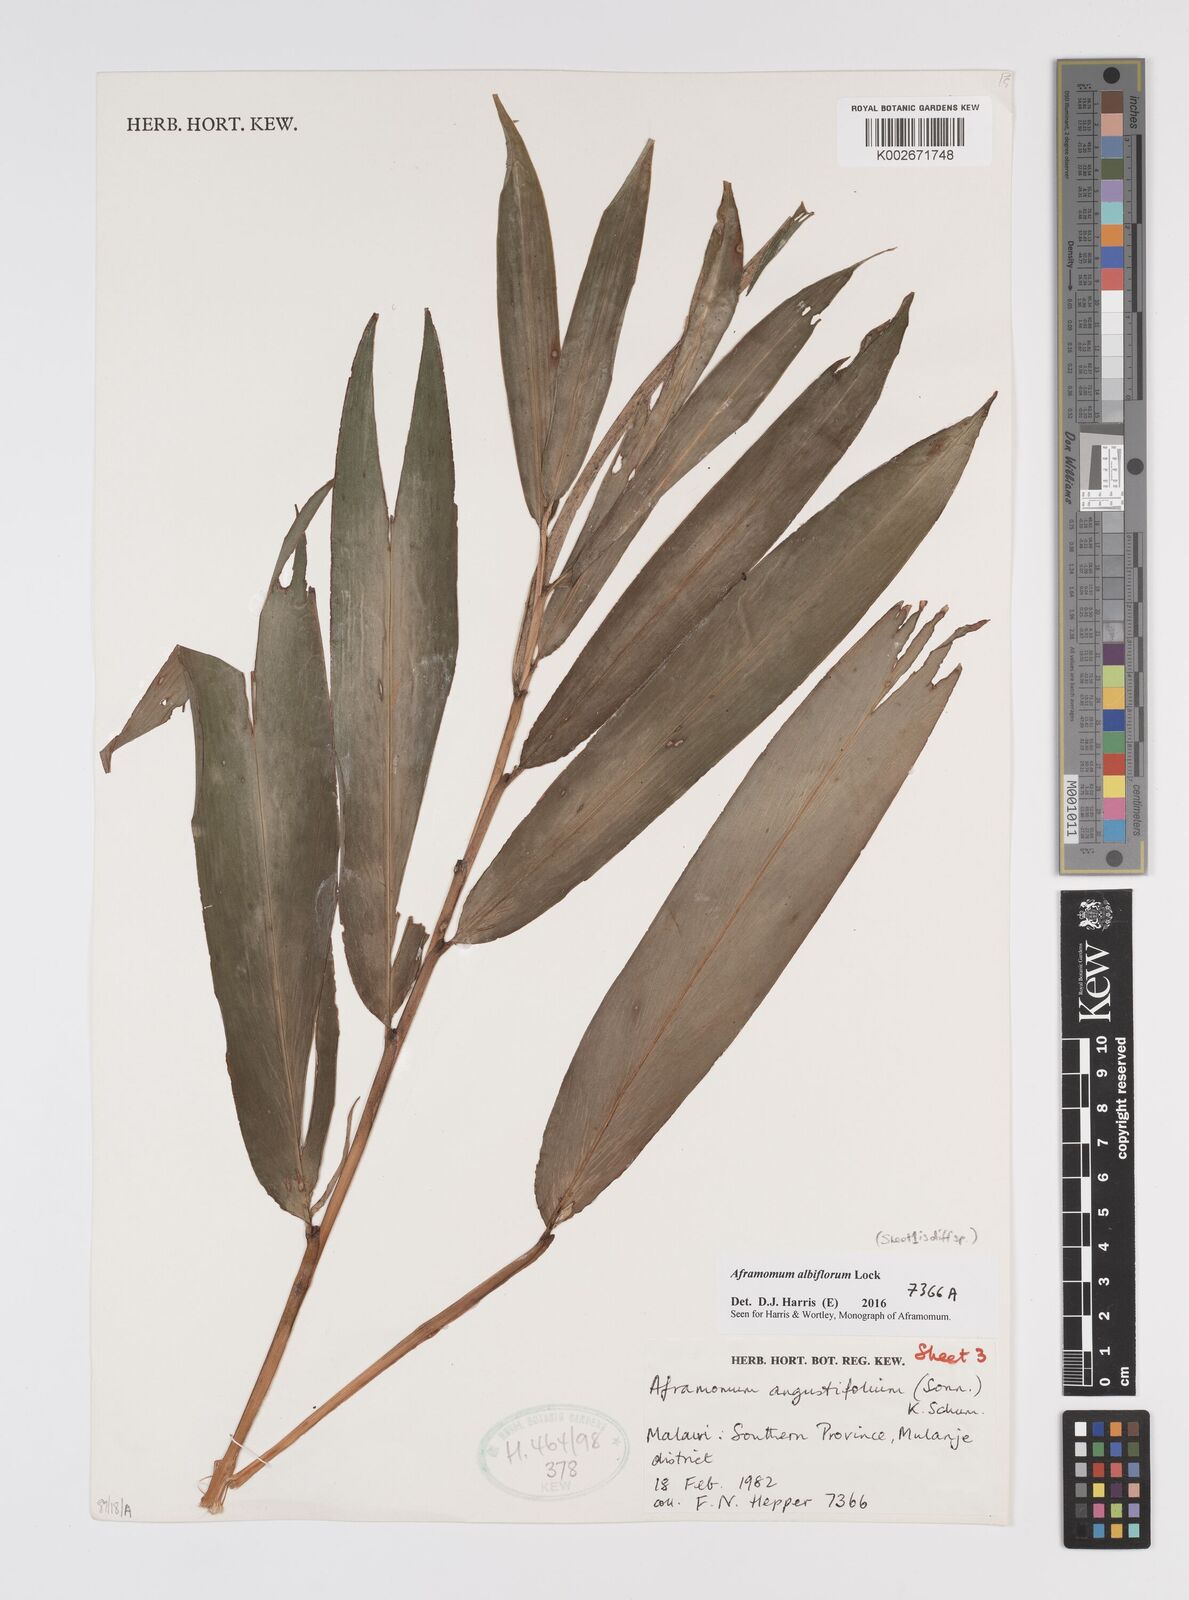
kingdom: Plantae
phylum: Tracheophyta
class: Liliopsida
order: Zingiberales
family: Zingiberaceae
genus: Aframomum
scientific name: Aframomum albiflorum
